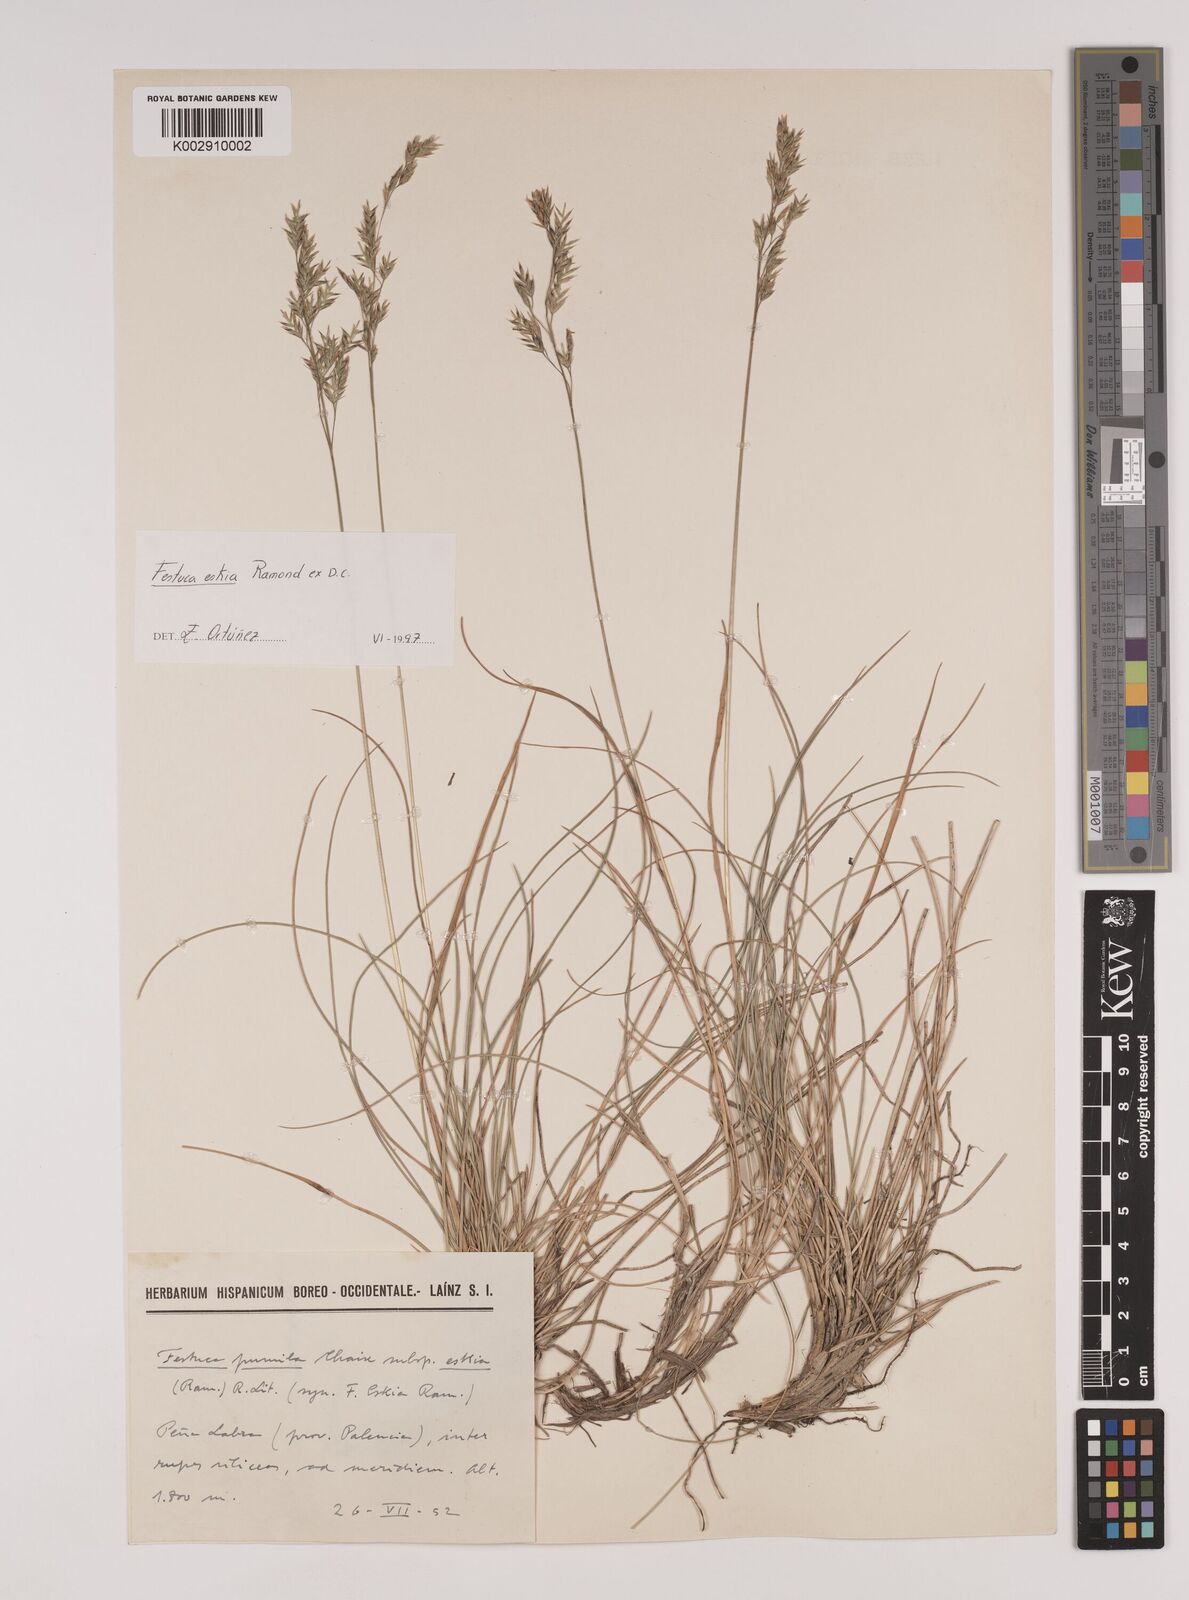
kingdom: Plantae
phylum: Tracheophyta
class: Liliopsida
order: Poales
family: Poaceae
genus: Festuca
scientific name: Festuca eskia
